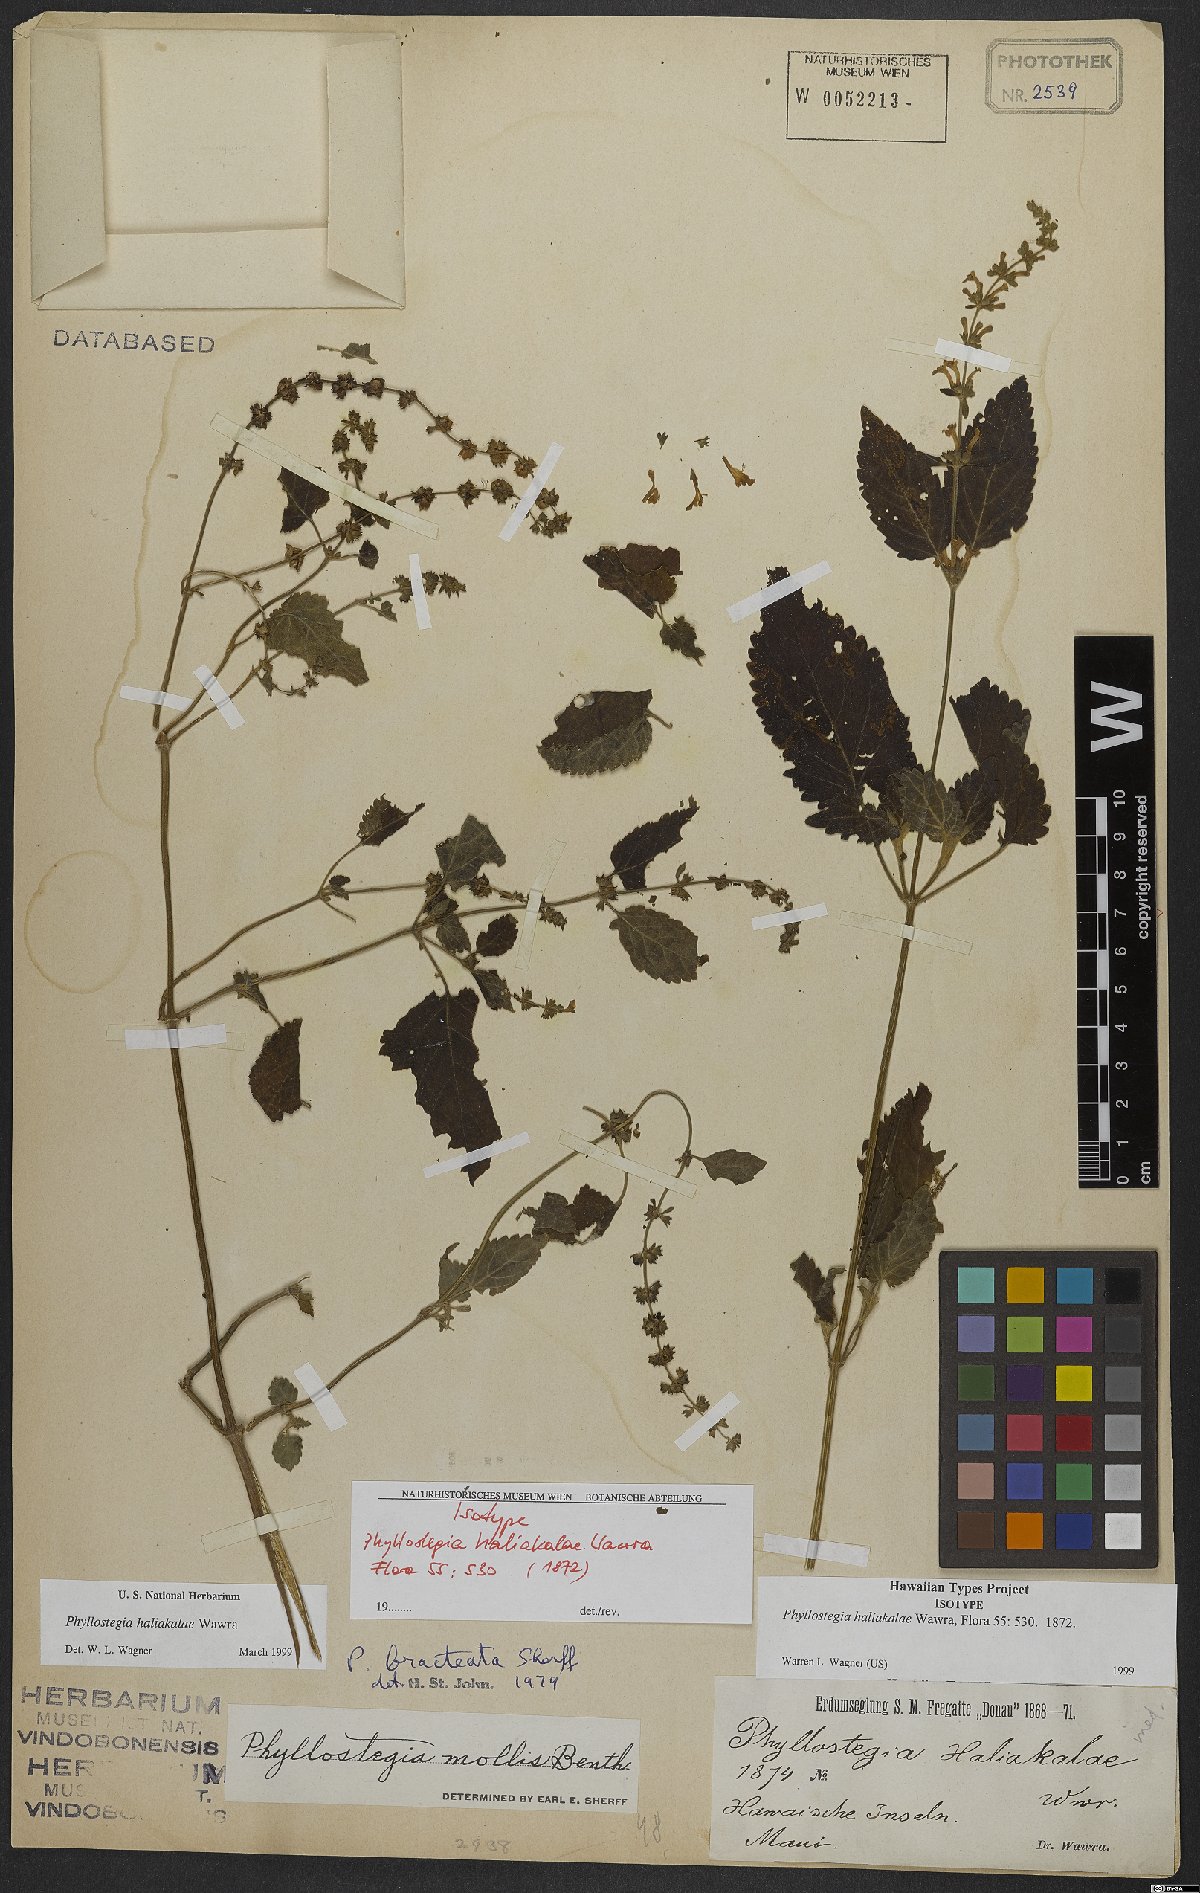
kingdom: Plantae
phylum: Tracheophyta
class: Magnoliopsida
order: Lamiales
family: Lamiaceae
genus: Phyllostegia
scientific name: Phyllostegia haliakalae
